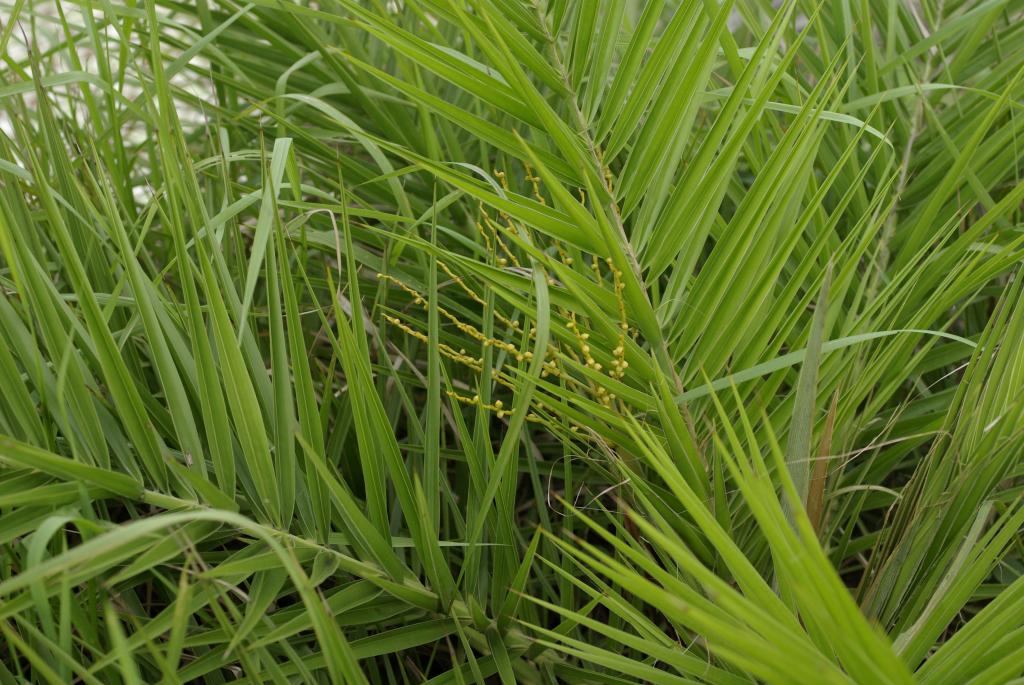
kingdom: Plantae
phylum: Tracheophyta
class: Liliopsida
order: Arecales
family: Arecaceae
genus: Phoenix
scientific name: Phoenix loureiroi
